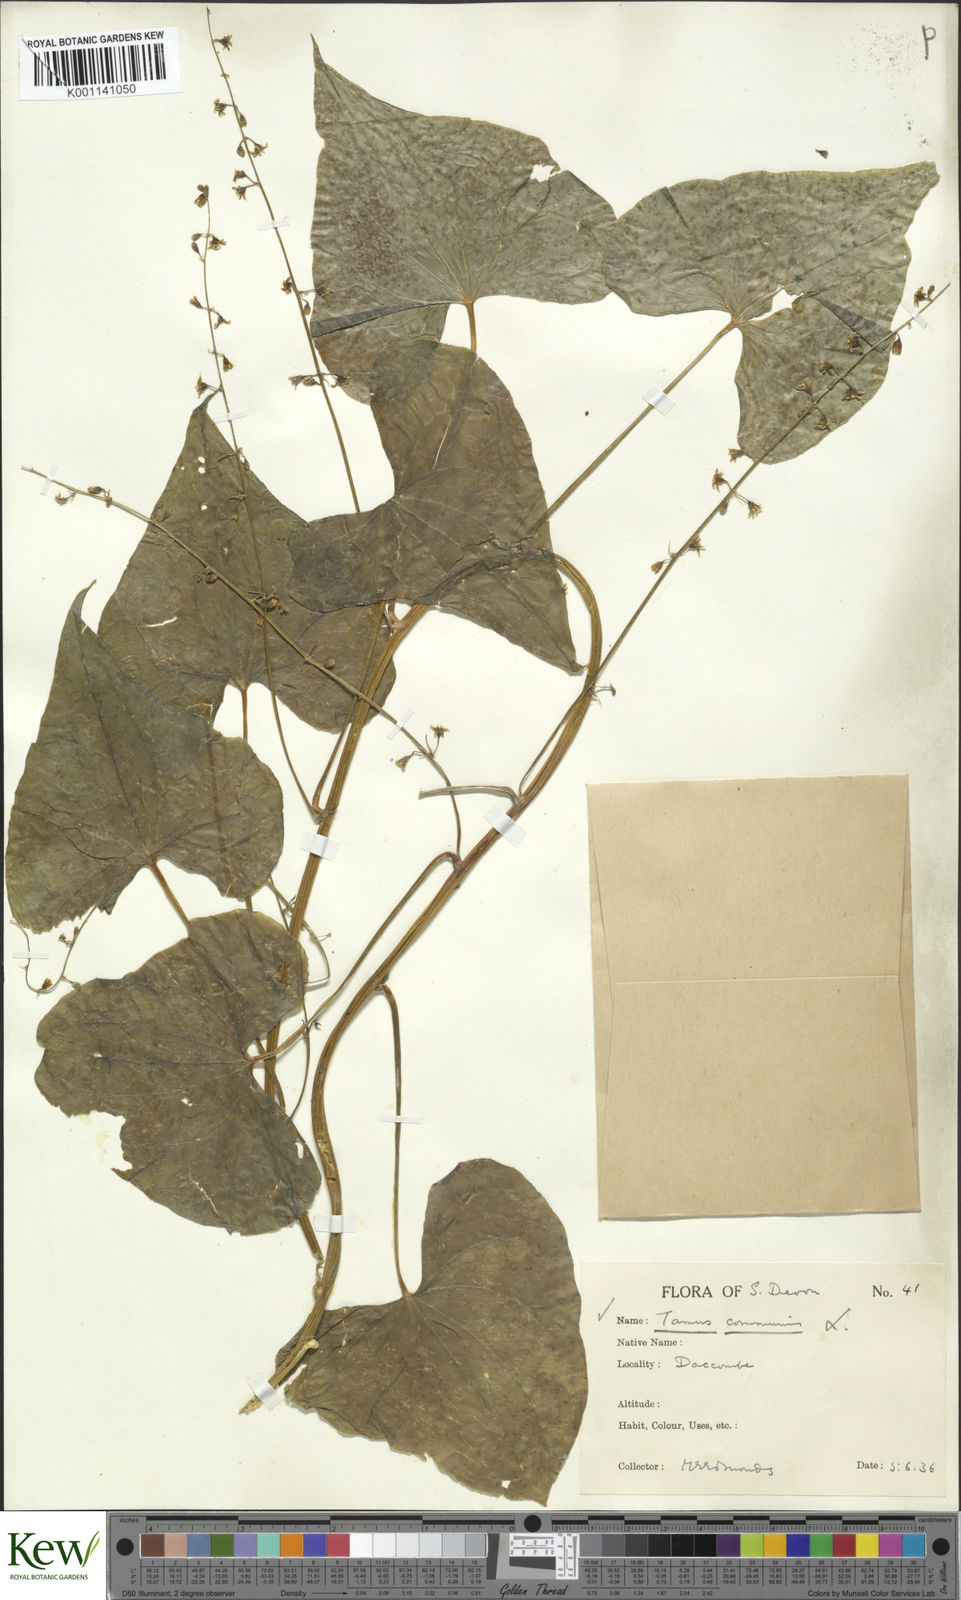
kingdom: Plantae
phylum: Tracheophyta
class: Liliopsida
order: Dioscoreales
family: Dioscoreaceae
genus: Dioscorea
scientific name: Dioscorea communis
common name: Black-bindweed
